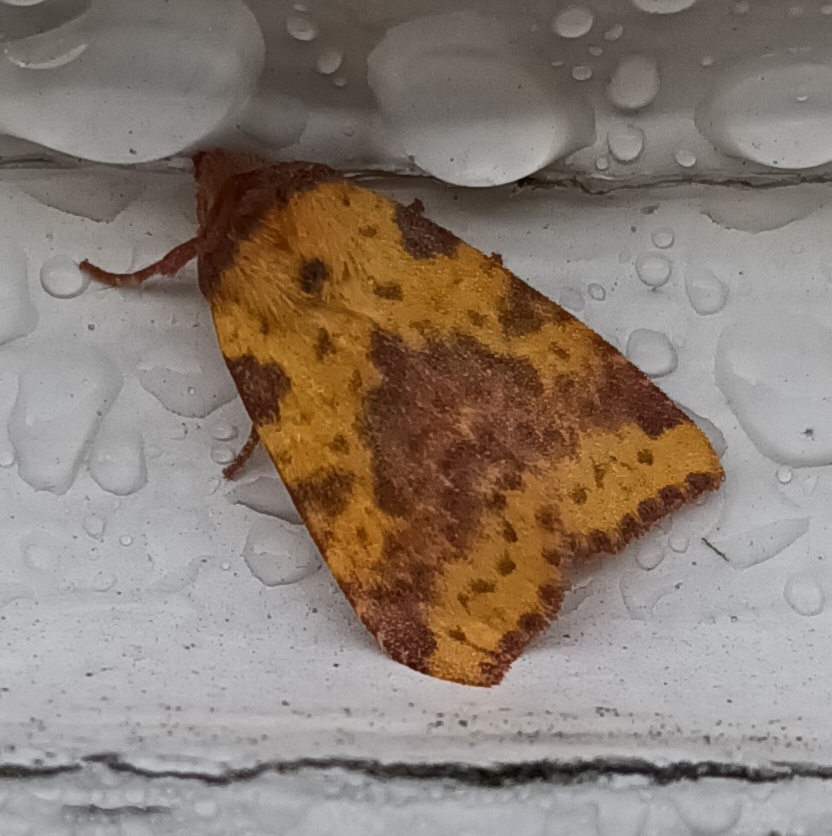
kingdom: Animalia
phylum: Arthropoda
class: Insecta
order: Lepidoptera
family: Noctuidae
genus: Xanthia
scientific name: Xanthia togata
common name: Toga-septemberugle
